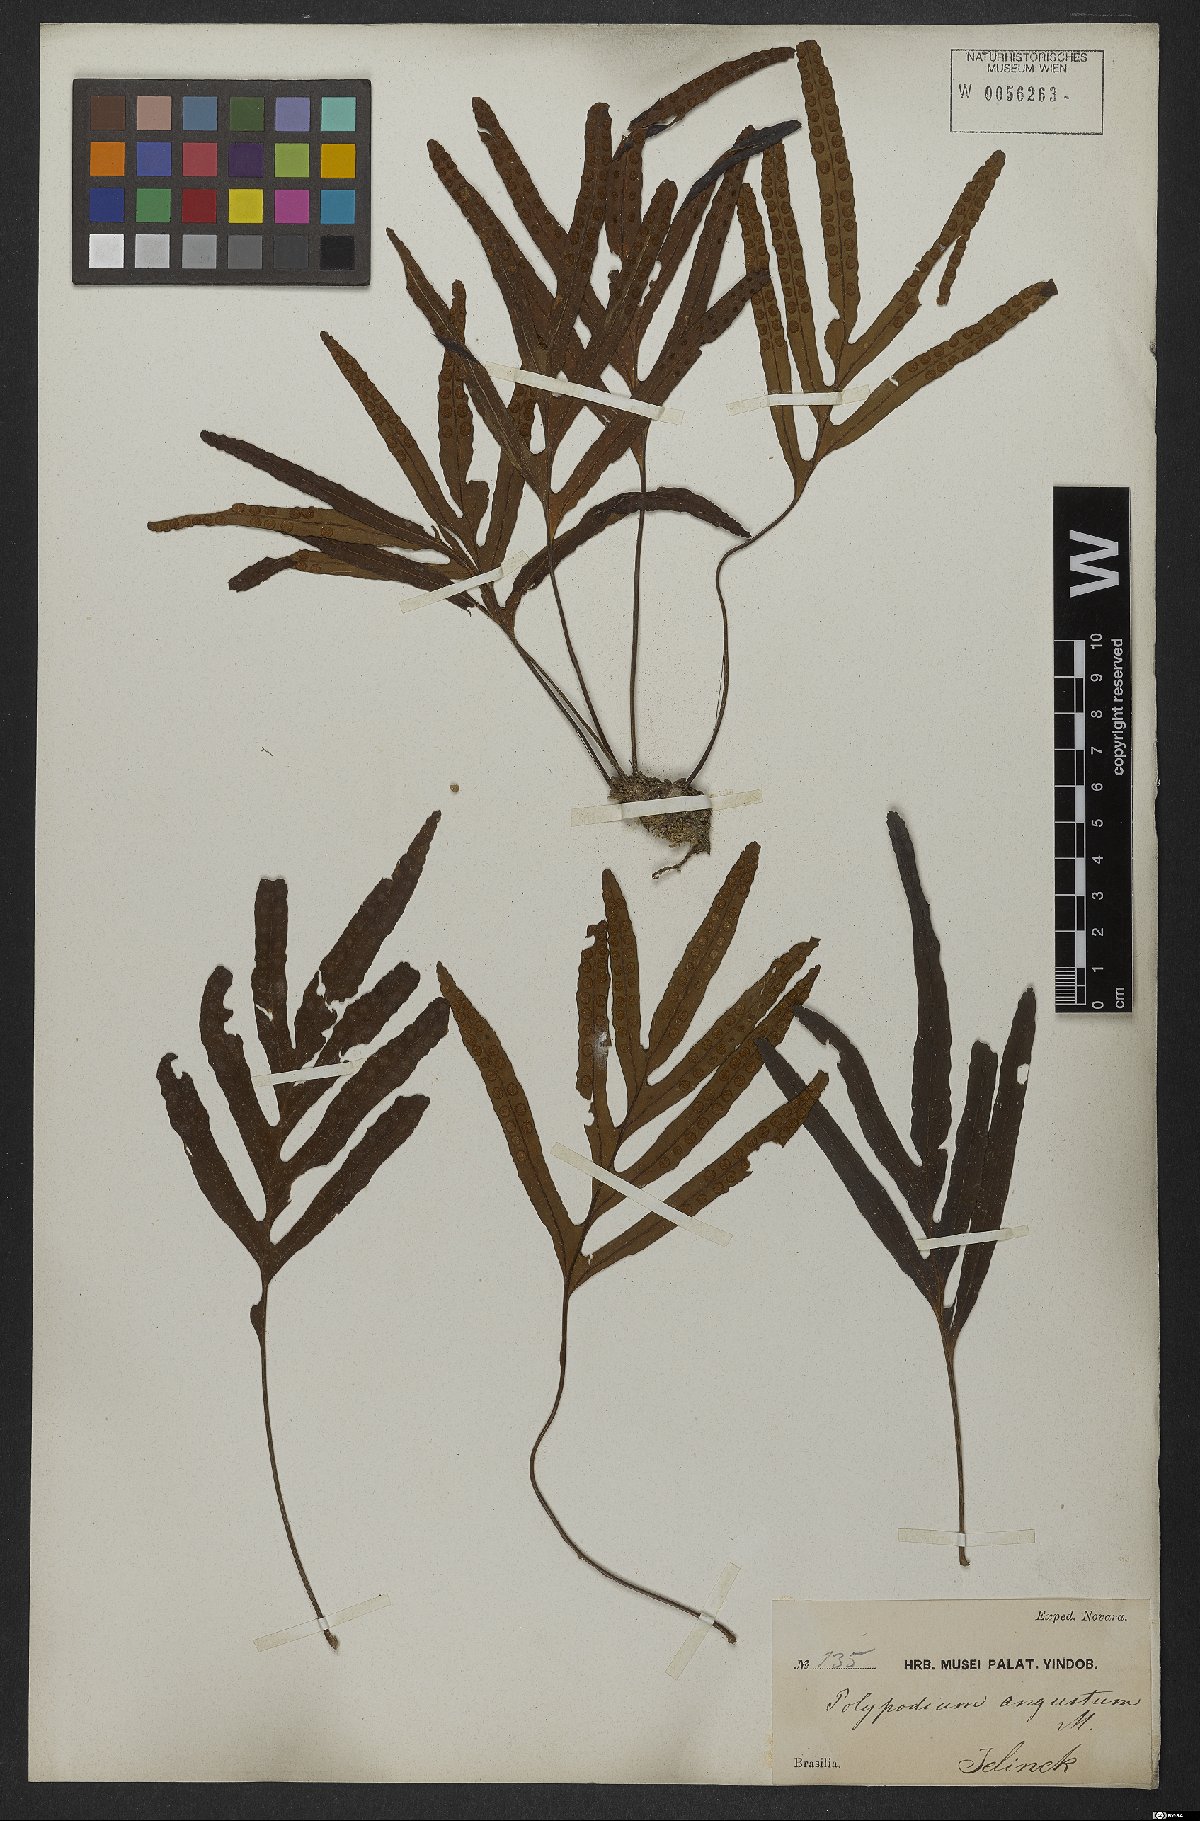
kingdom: Plantae
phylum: Tracheophyta
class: Polypodiopsida
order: Polypodiales
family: Polypodiaceae
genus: Pleopeltis
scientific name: Pleopeltis angusta
